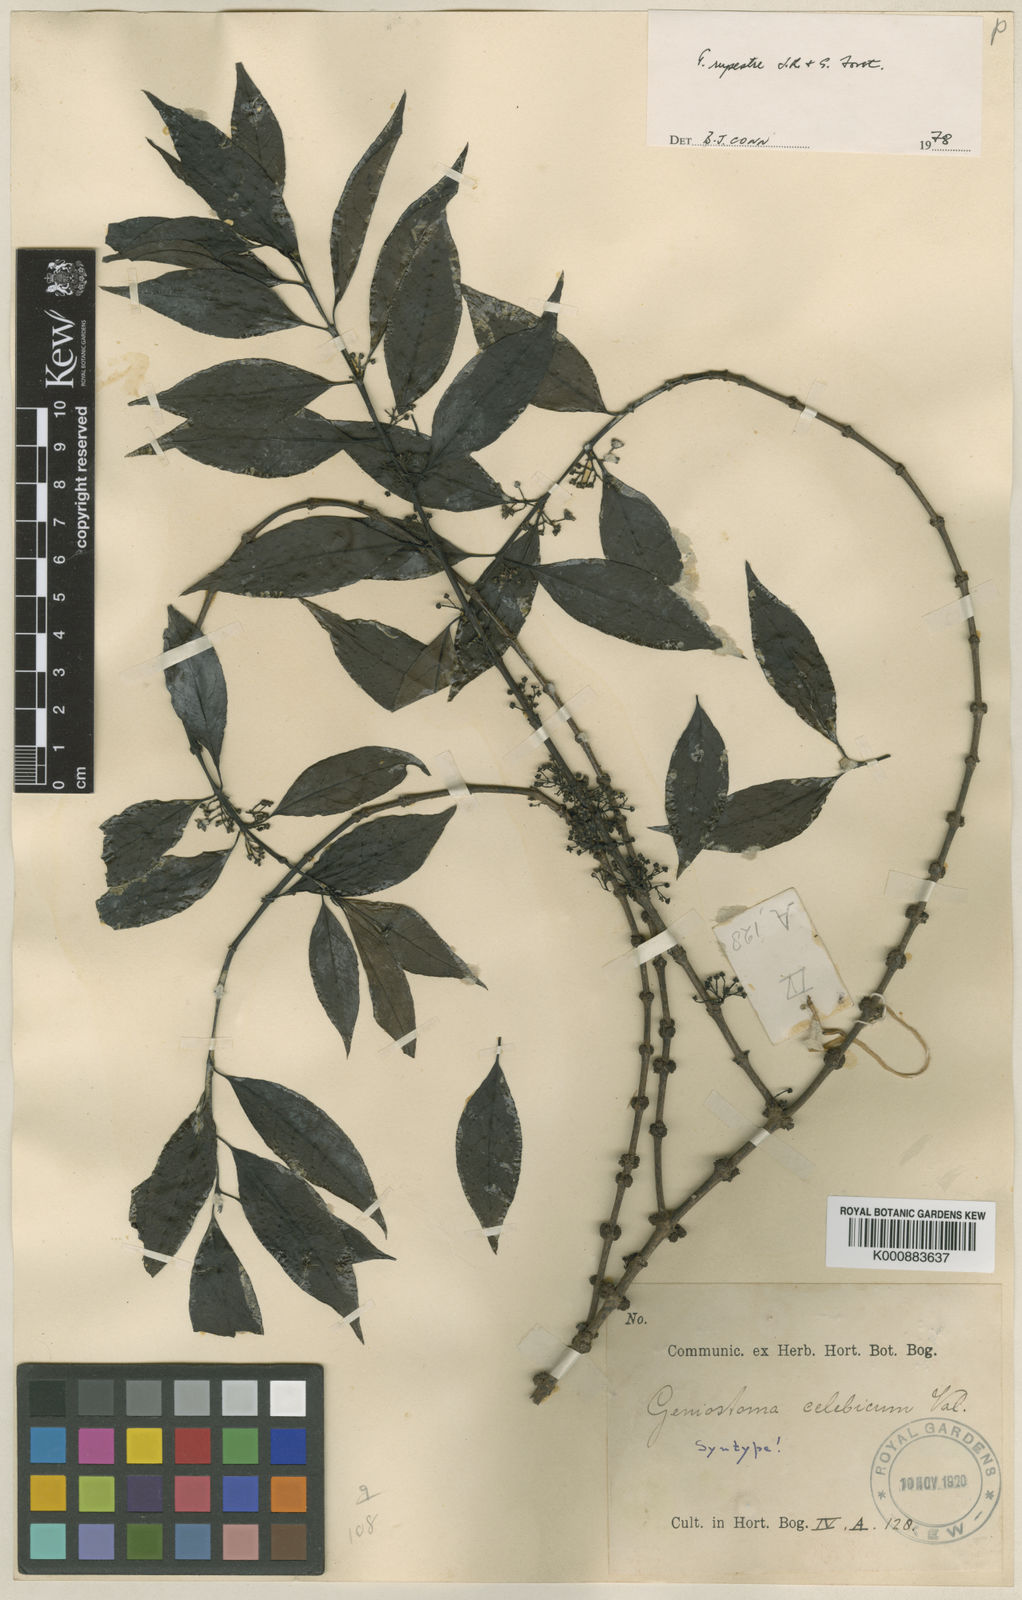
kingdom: Plantae
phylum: Tracheophyta
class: Magnoliopsida
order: Gentianales
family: Loganiaceae
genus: Geniostoma
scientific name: Geniostoma rupestre
